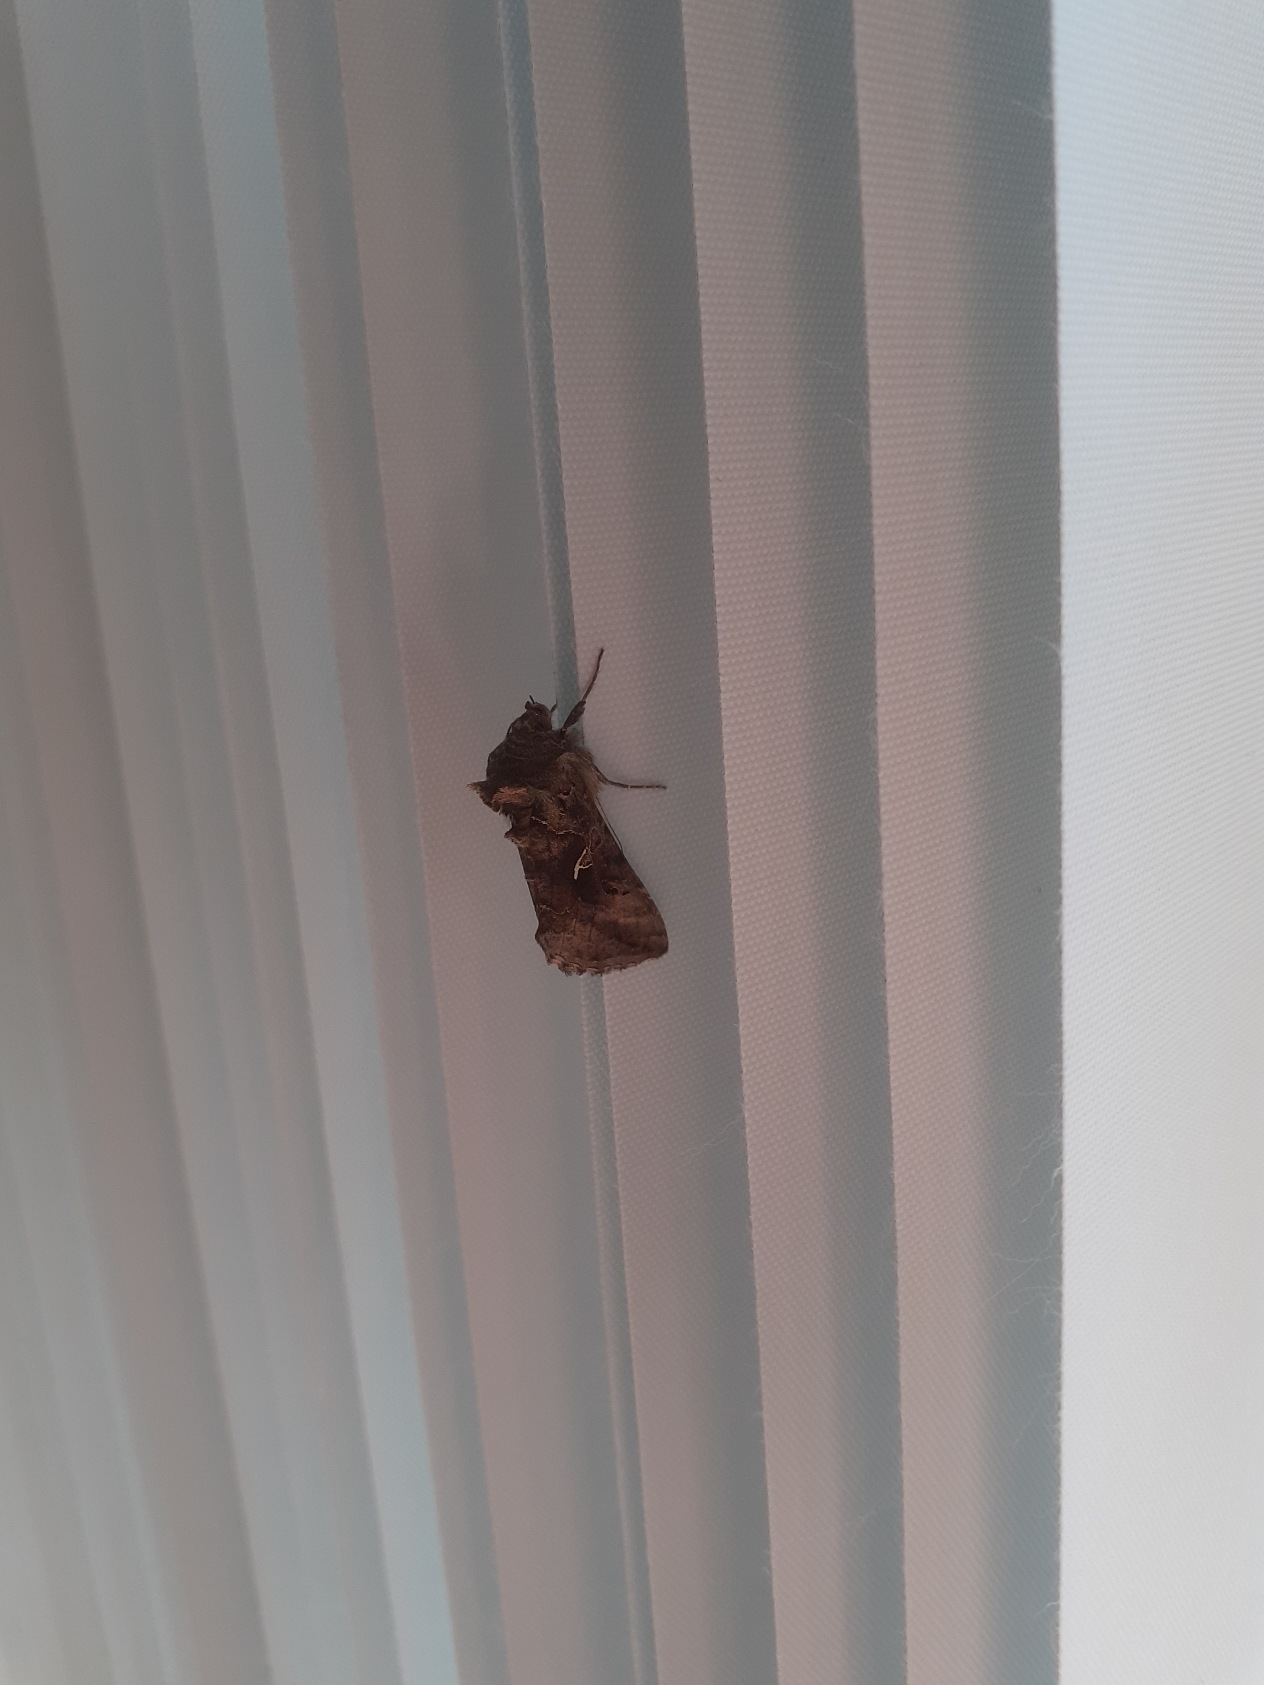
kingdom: Animalia
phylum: Arthropoda
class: Insecta
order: Lepidoptera
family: Noctuidae
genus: Autographa
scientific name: Autographa gamma
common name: Gammaugle
